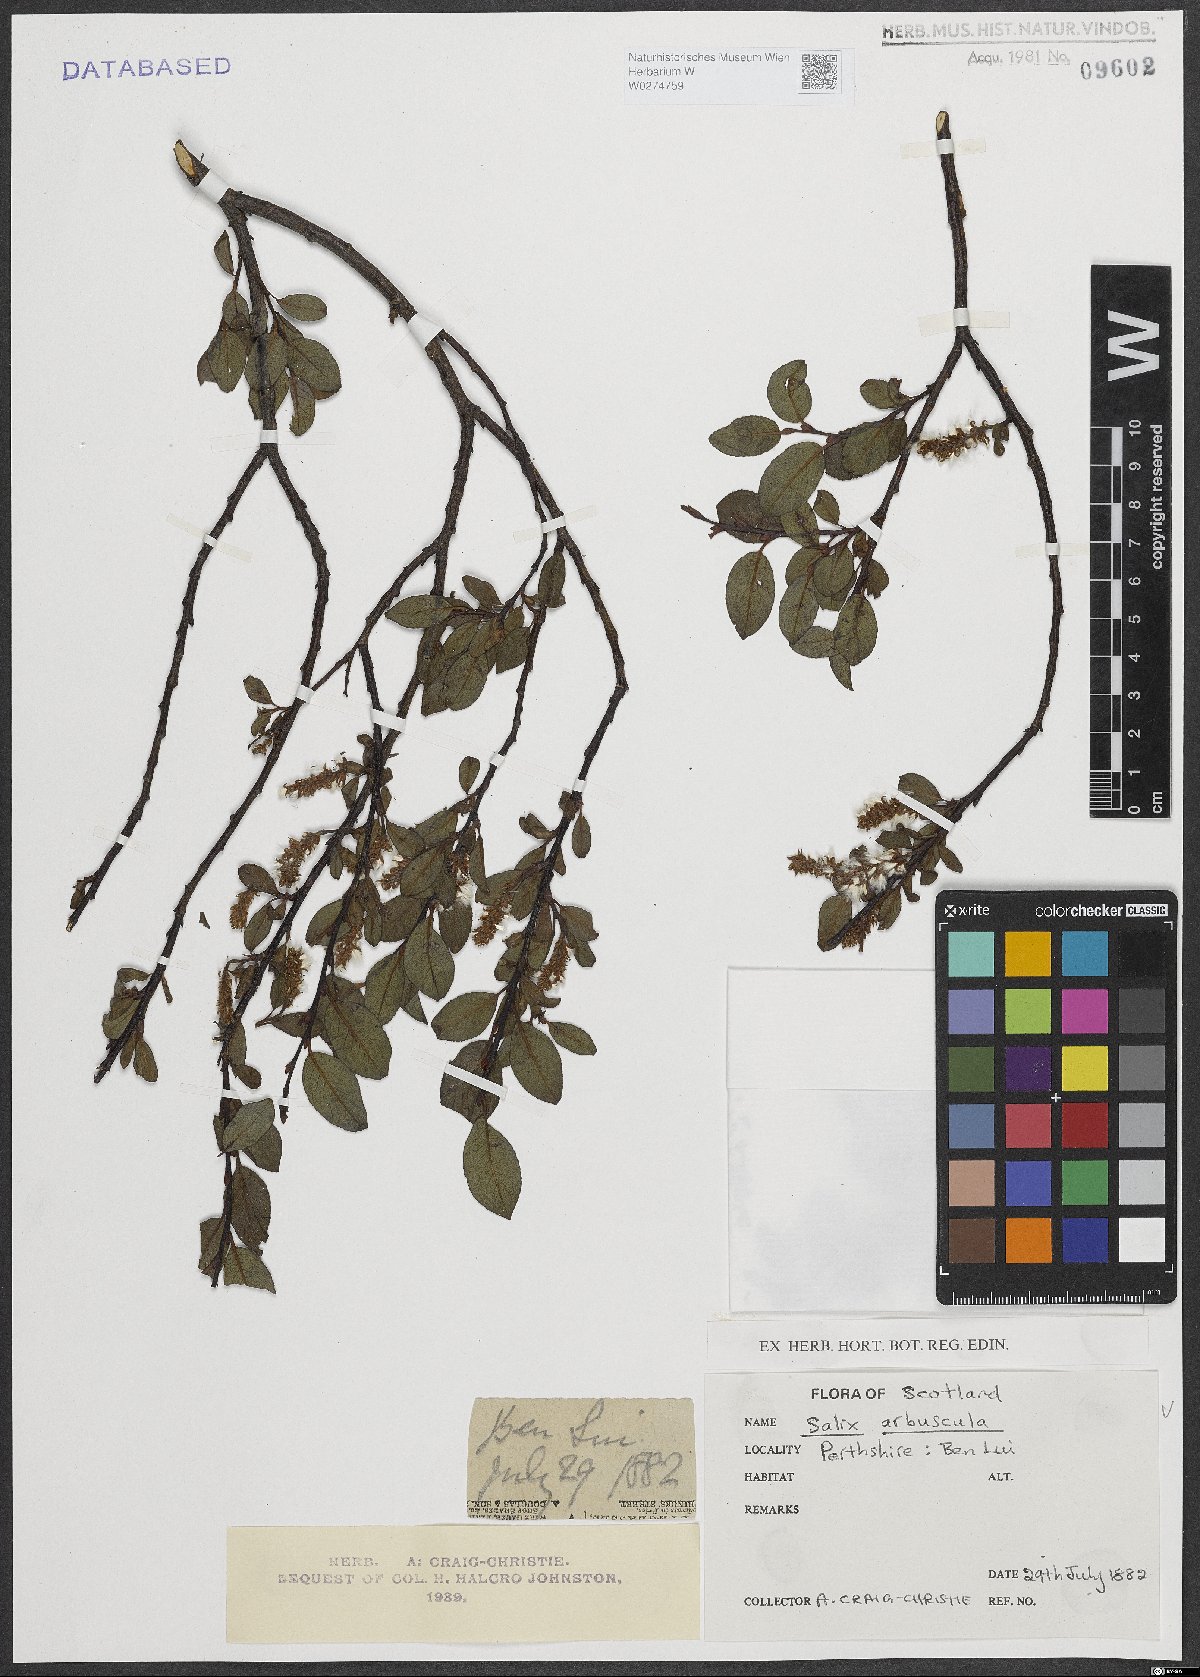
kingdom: Plantae
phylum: Tracheophyta
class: Magnoliopsida
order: Malpighiales
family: Salicaceae
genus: Salix
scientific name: Salix arbuscula
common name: Mountain willow
